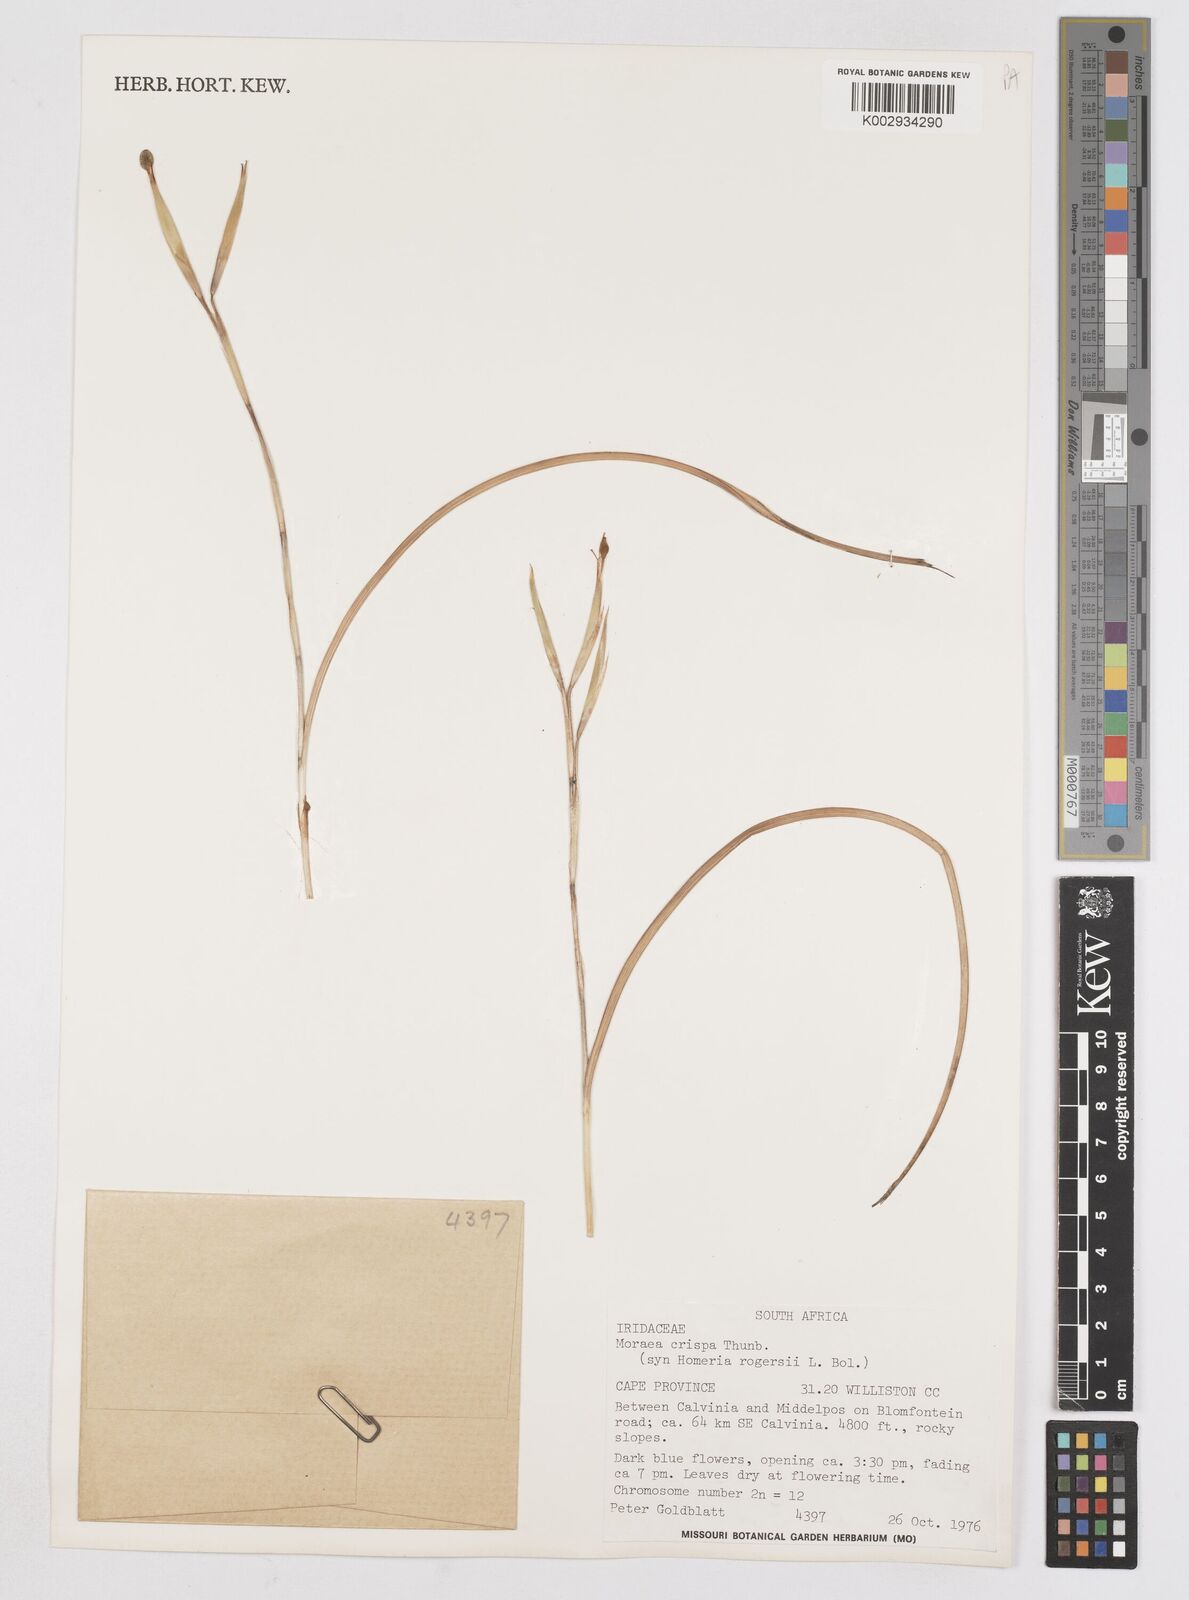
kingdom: Plantae
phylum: Tracheophyta
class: Liliopsida
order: Asparagales
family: Iridaceae
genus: Moraea
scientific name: Moraea crispa
